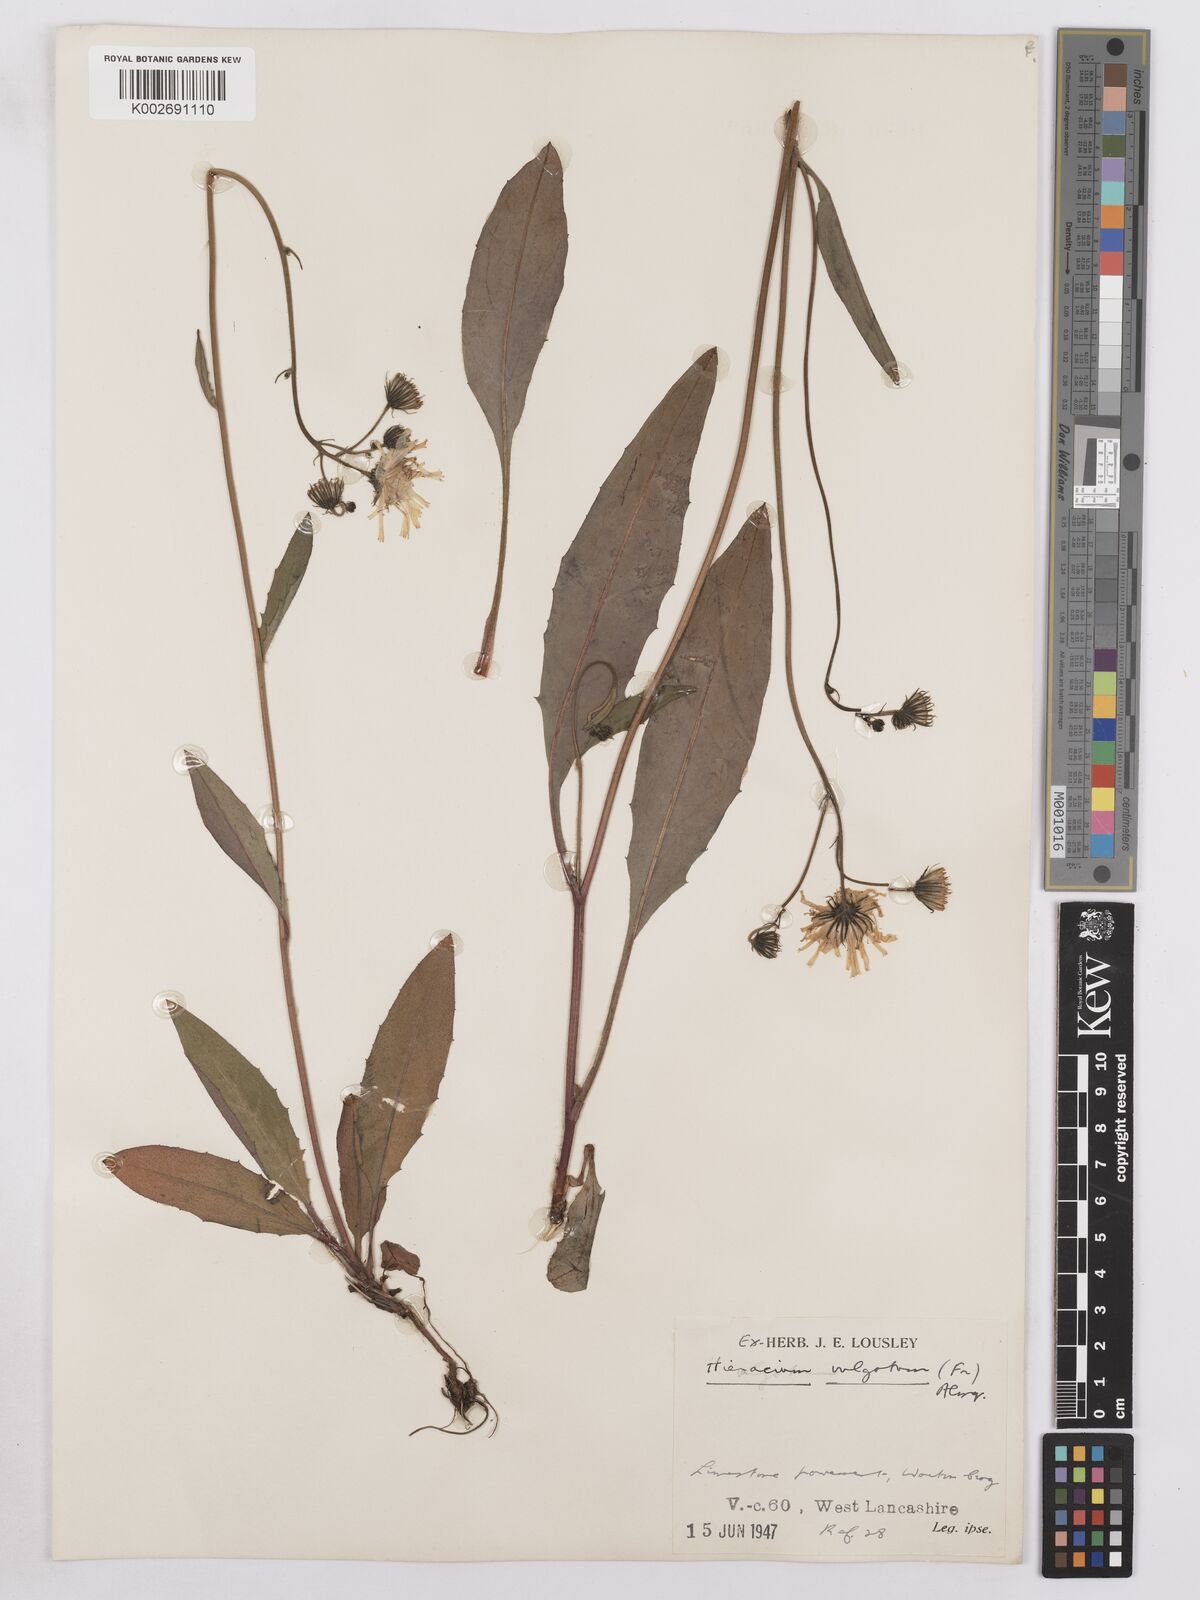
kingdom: Plantae
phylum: Tracheophyta
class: Magnoliopsida
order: Asterales
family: Asteraceae
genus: Hieracium
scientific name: Hieracium lachenalii
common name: Common hawkweed
